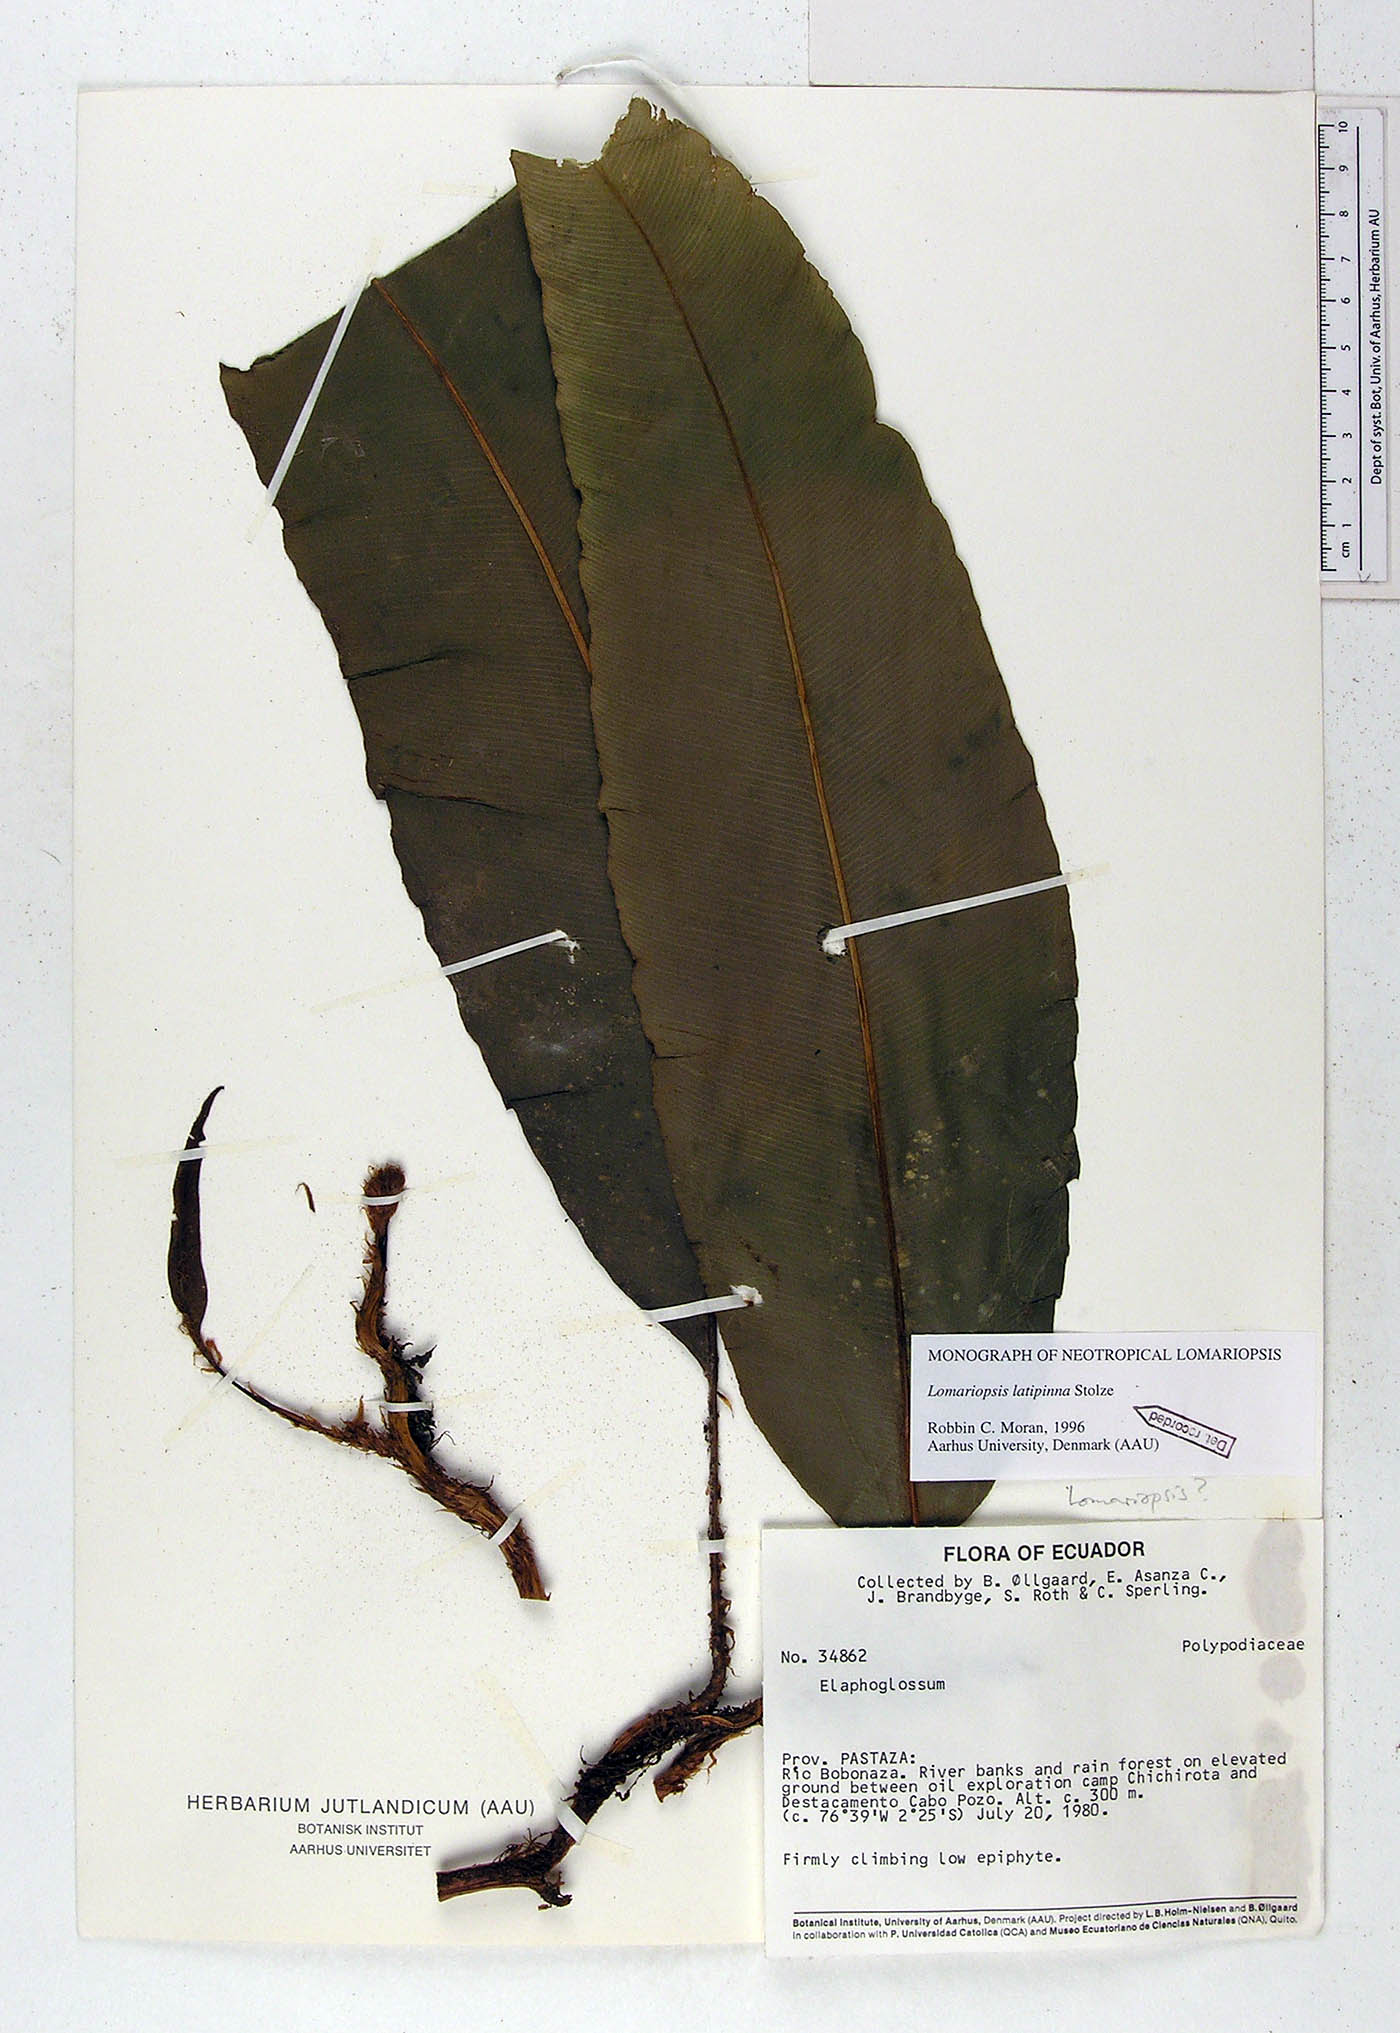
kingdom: Plantae
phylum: Tracheophyta
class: Polypodiopsida
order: Polypodiales
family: Lomariopsidaceae
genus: Lomariopsis
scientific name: Lomariopsis latipinna
